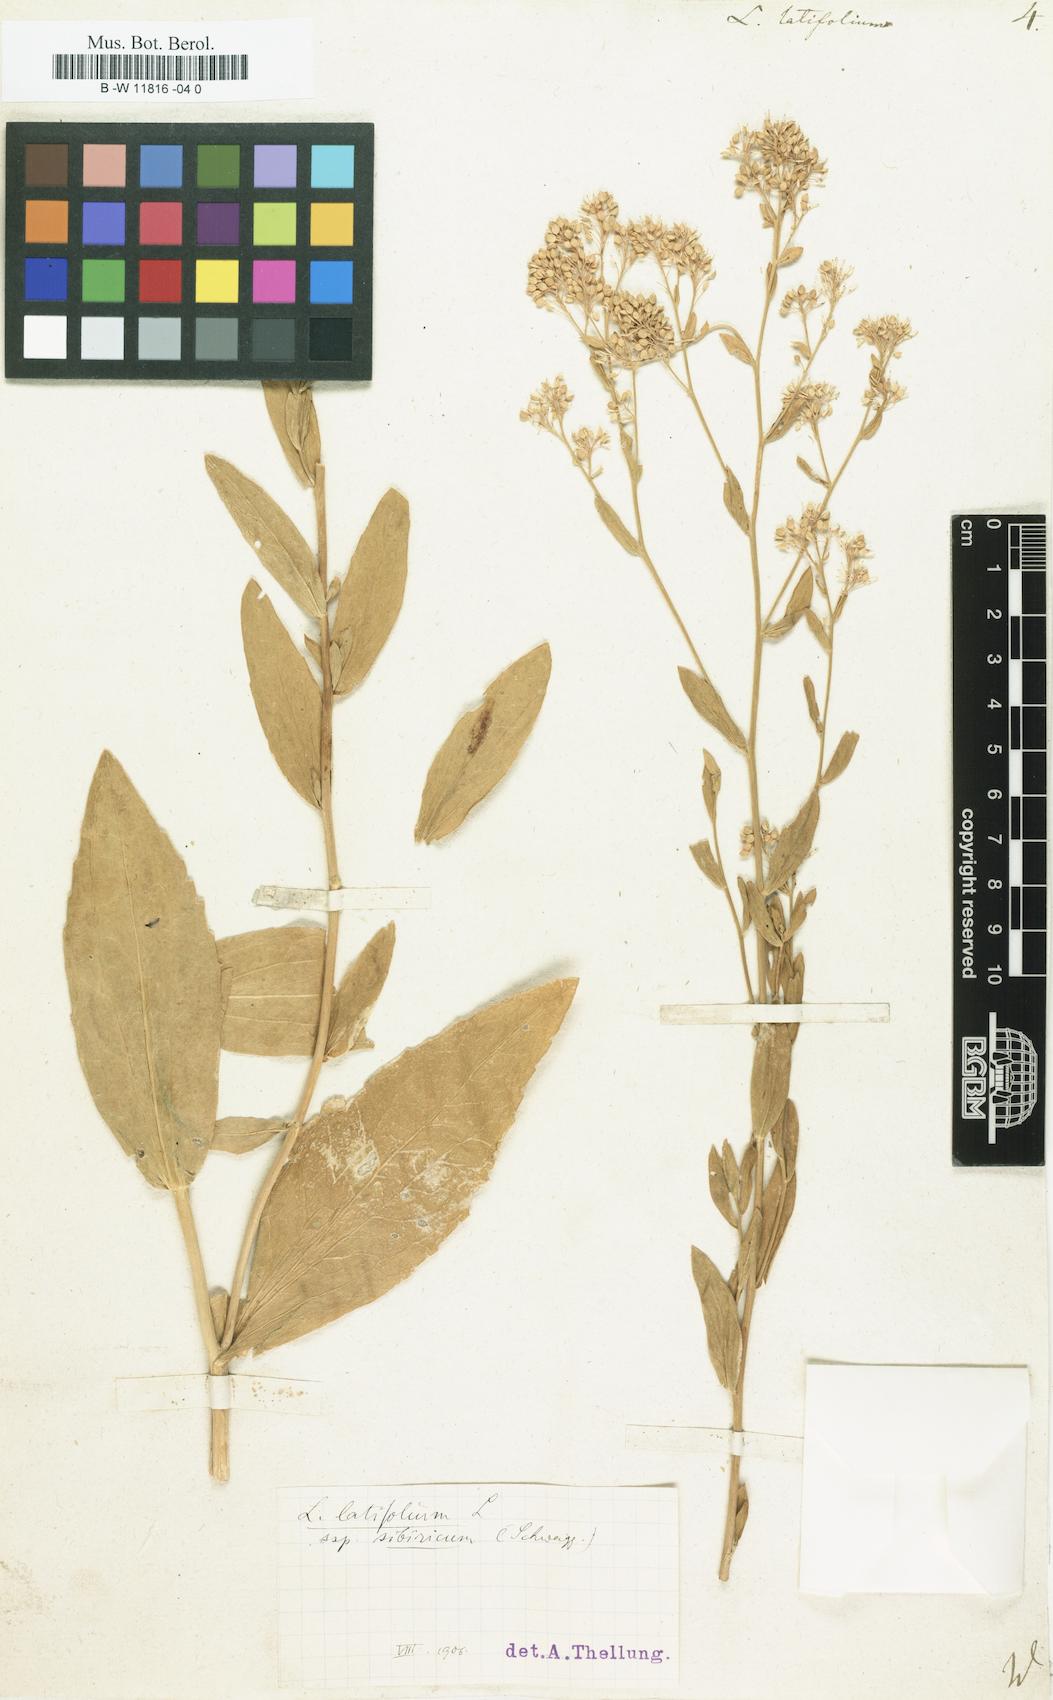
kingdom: Plantae
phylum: Tracheophyta
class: Magnoliopsida
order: Brassicales
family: Brassicaceae
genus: Lepidium
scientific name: Lepidium latifolium
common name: Dittander
